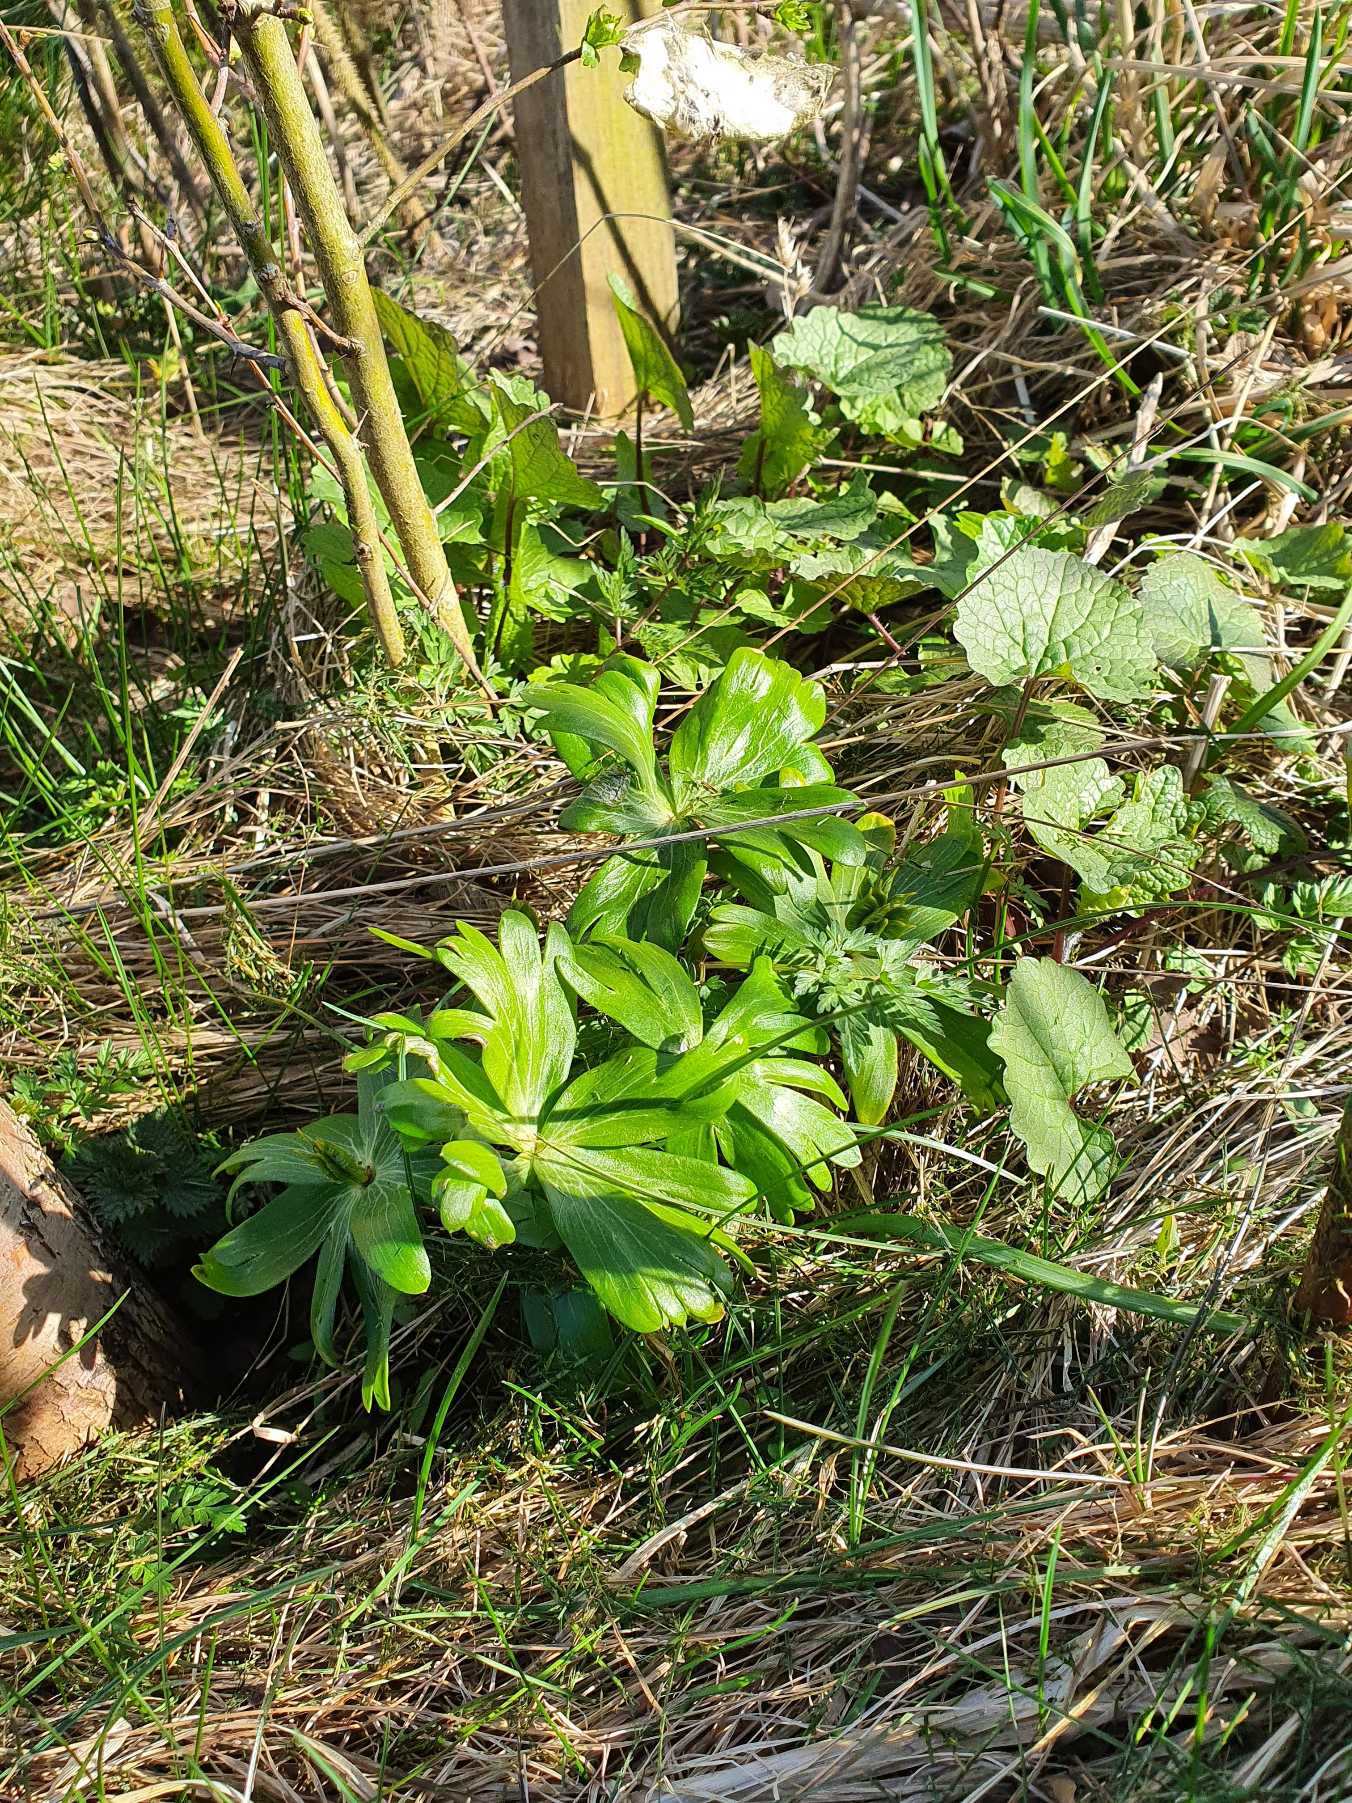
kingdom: Plantae
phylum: Tracheophyta
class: Magnoliopsida
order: Ranunculales
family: Ranunculaceae
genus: Eranthis
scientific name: Eranthis hyemalis
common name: Erantis
